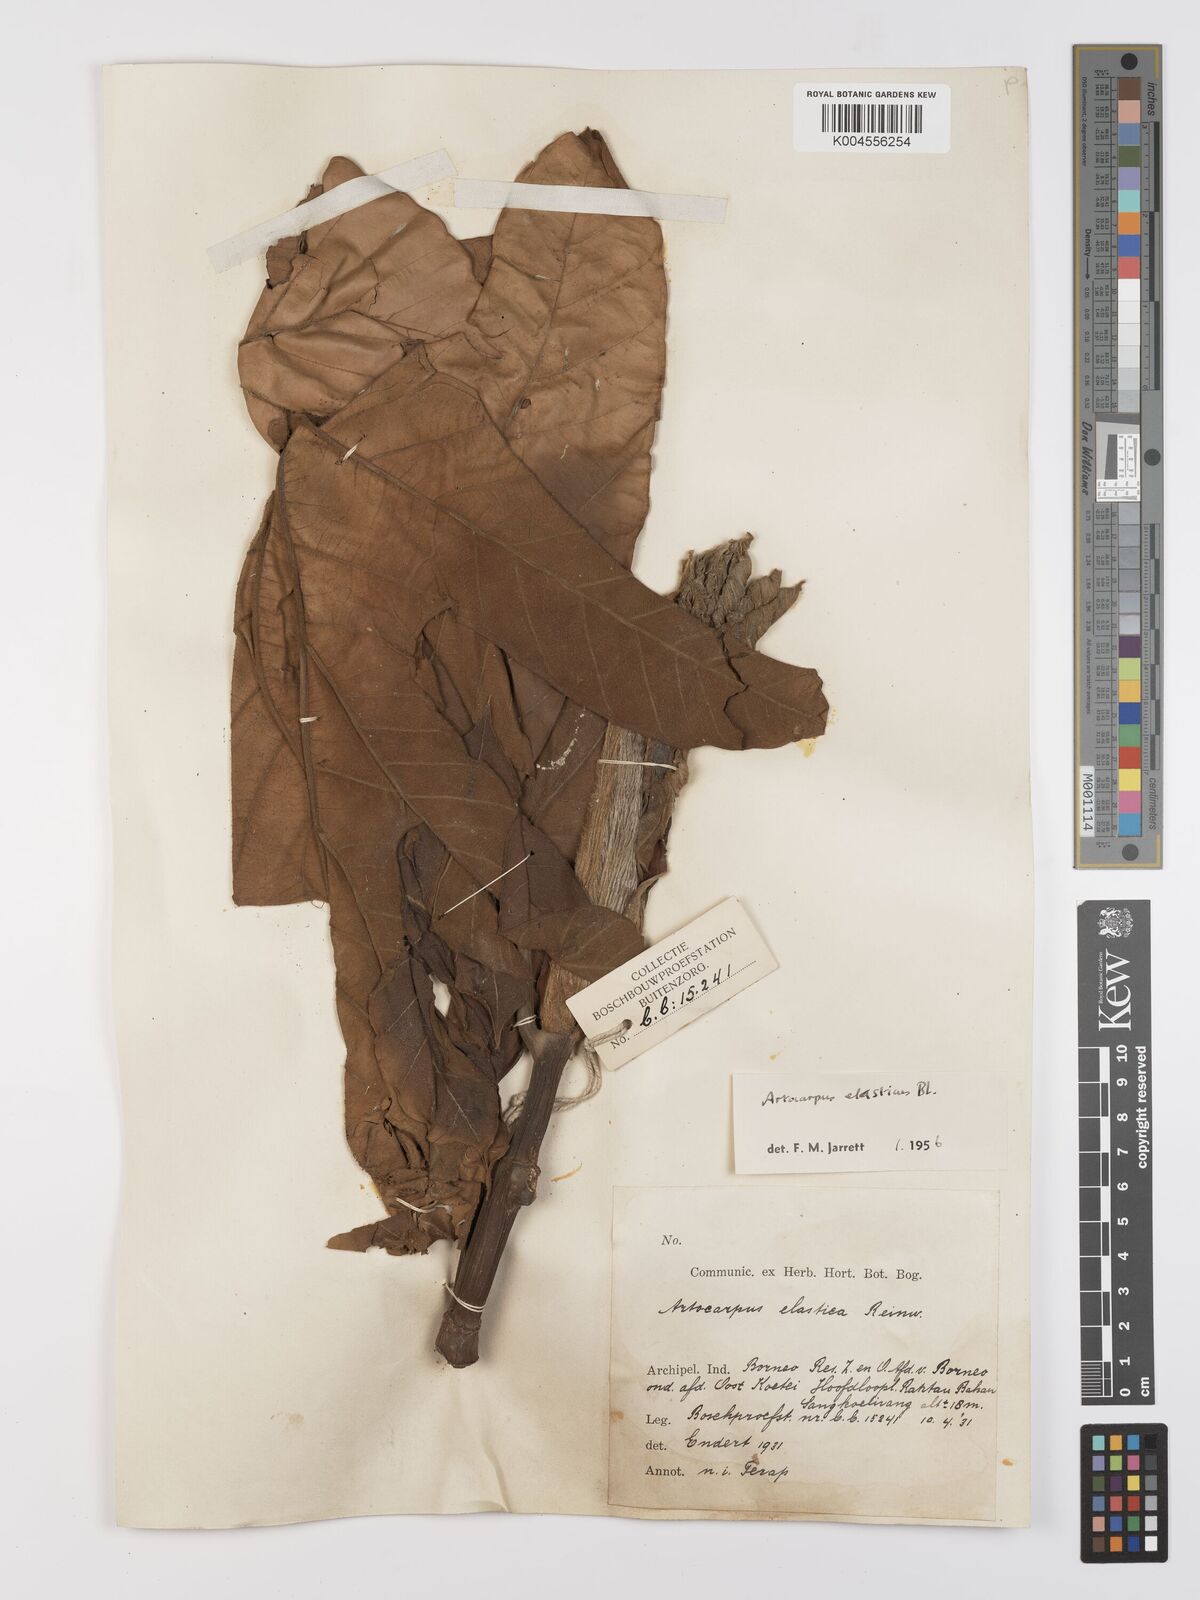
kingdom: Plantae
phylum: Tracheophyta
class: Magnoliopsida
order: Rosales
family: Moraceae
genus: Artocarpus
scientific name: Artocarpus elasticus
